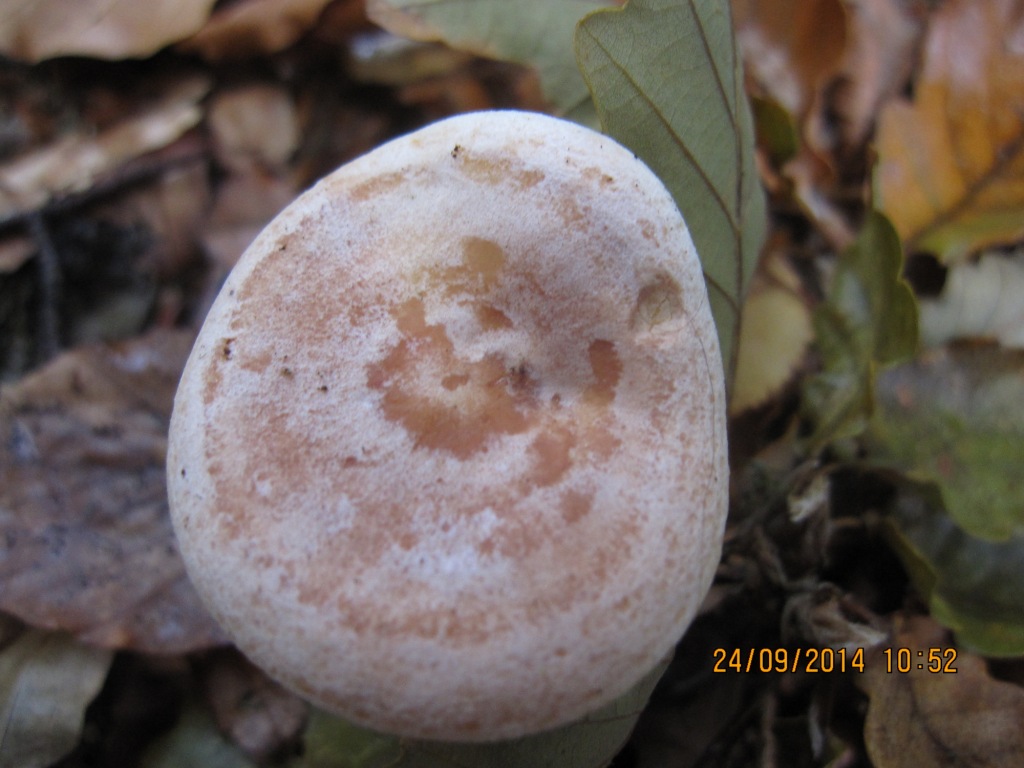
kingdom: Fungi
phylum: Basidiomycota
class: Agaricomycetes
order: Russulales
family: Russulaceae
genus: Lactarius
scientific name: Lactarius chrysorrheus
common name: svovlmælket mælkehat
